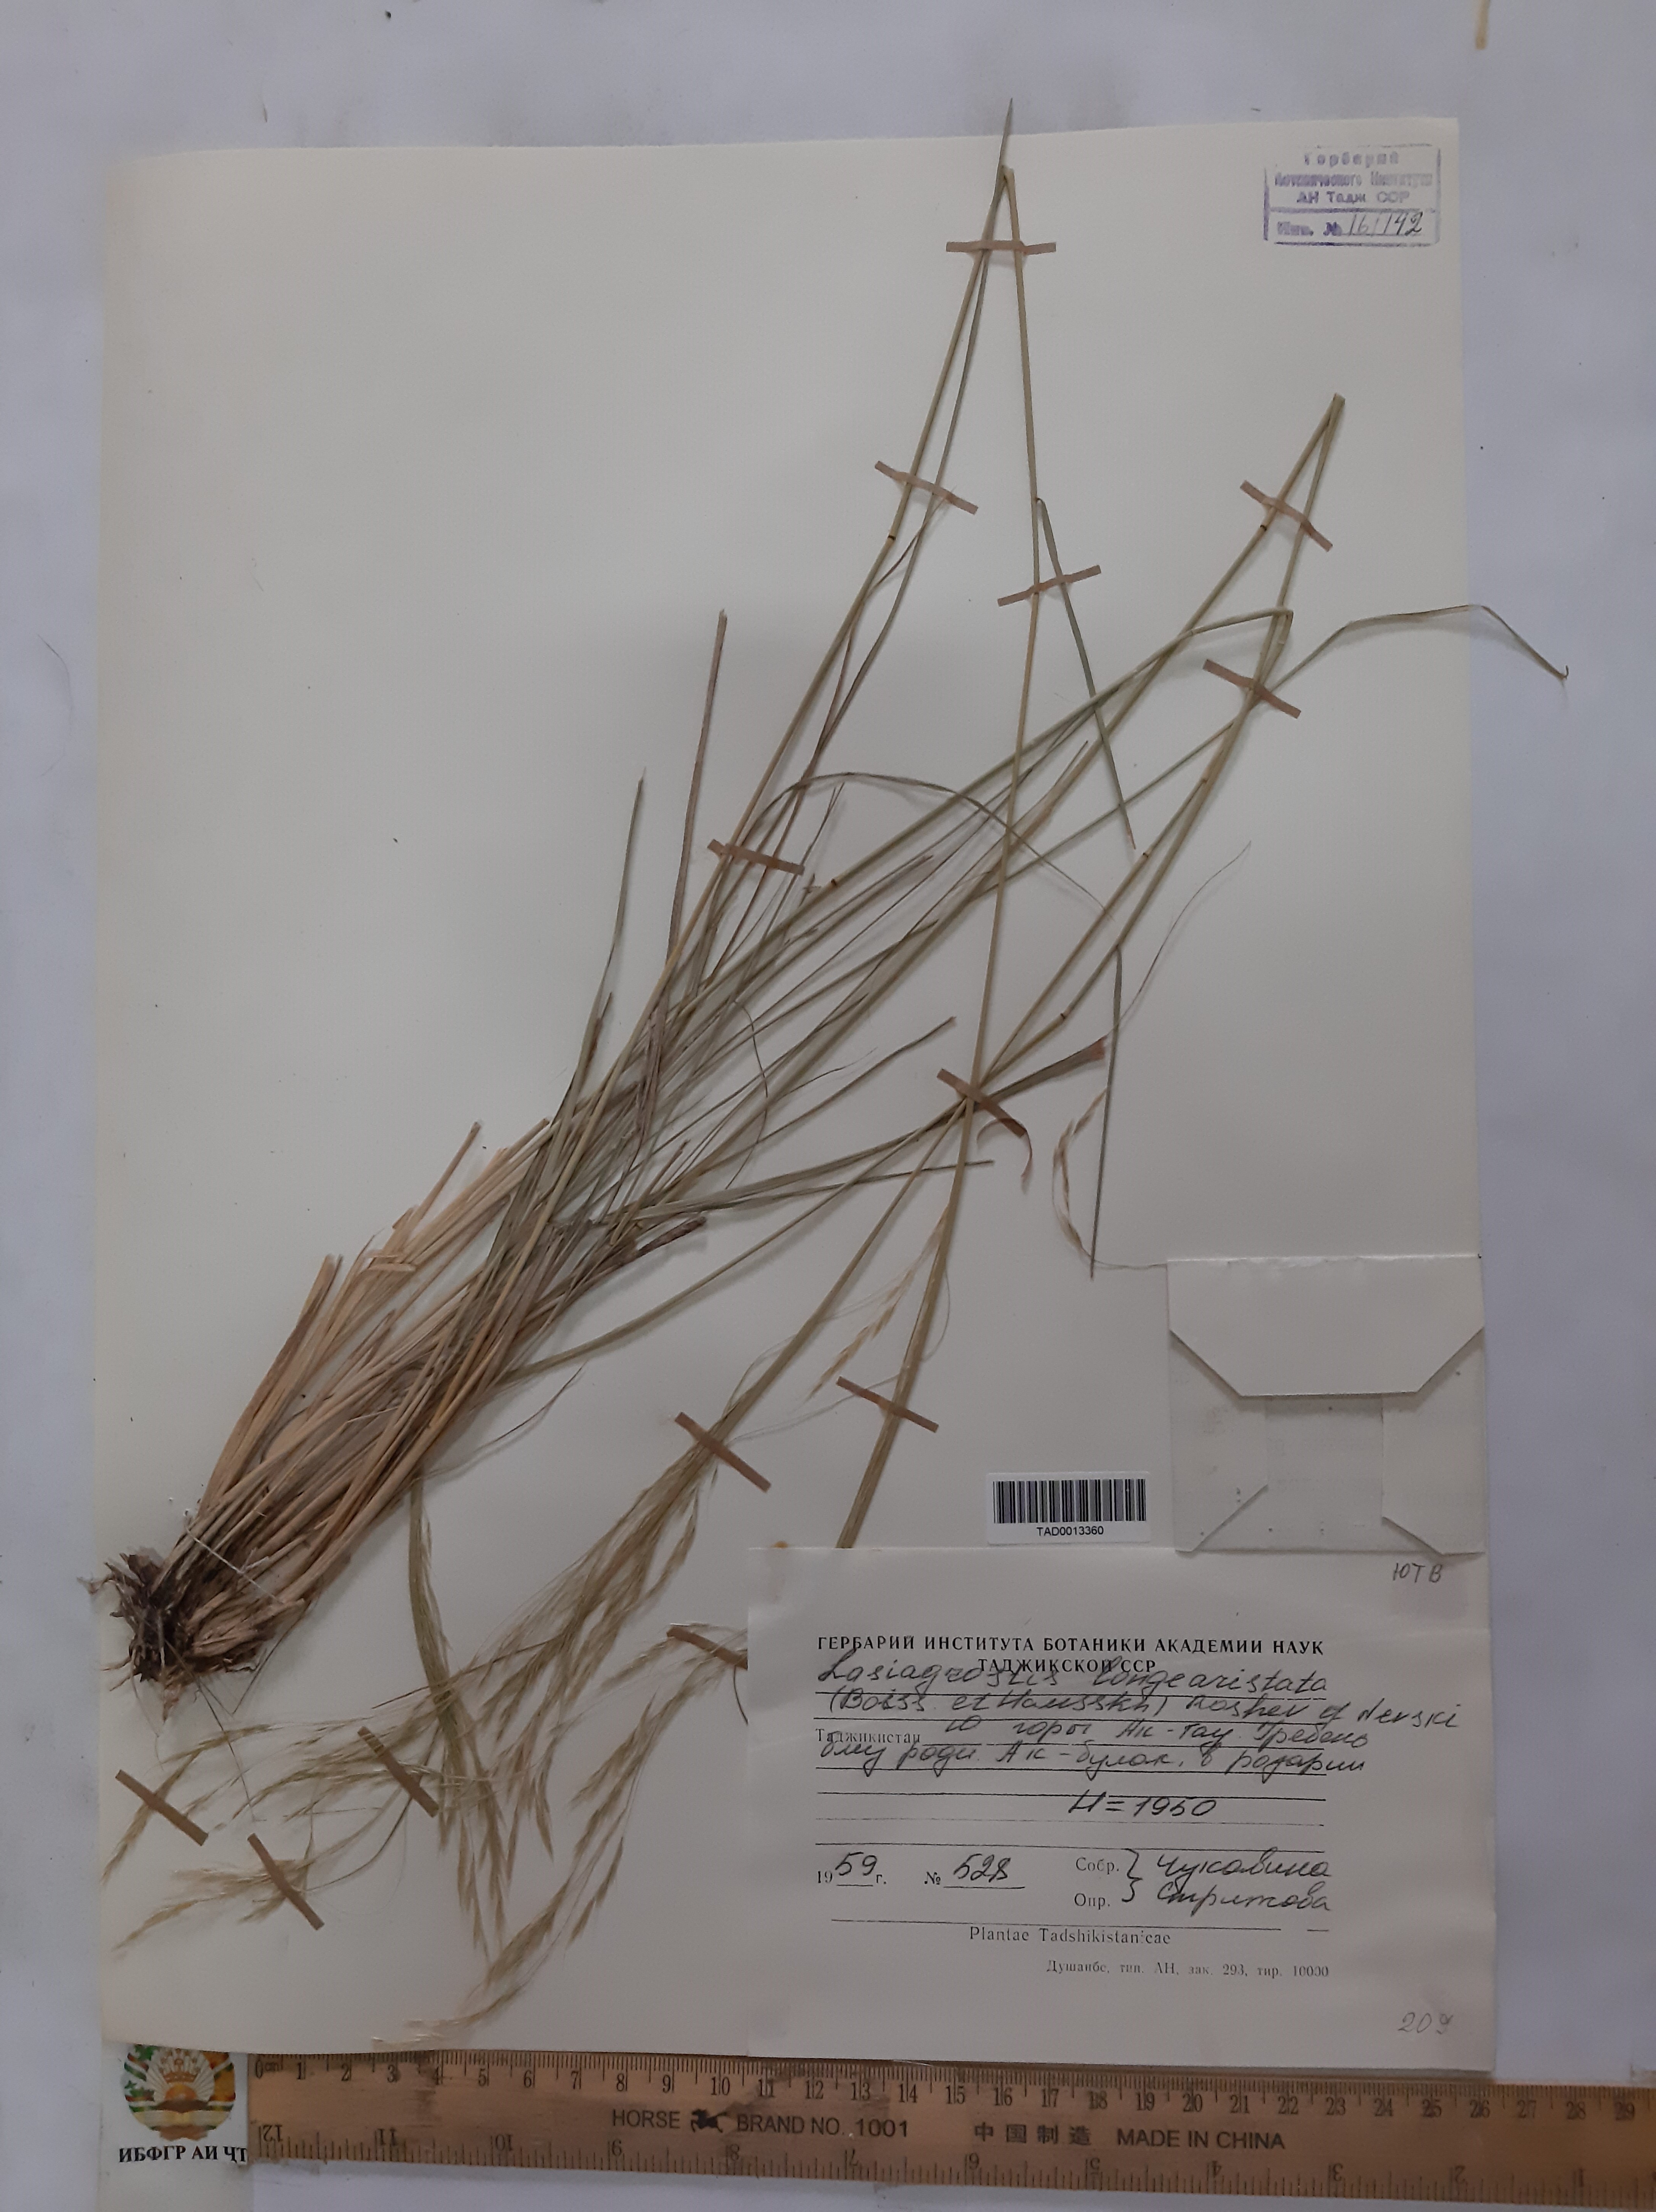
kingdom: Plantae
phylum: Tracheophyta
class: Liliopsida
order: Poales
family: Poaceae
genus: Achnatherum
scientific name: Achnatherum turcomanicum
